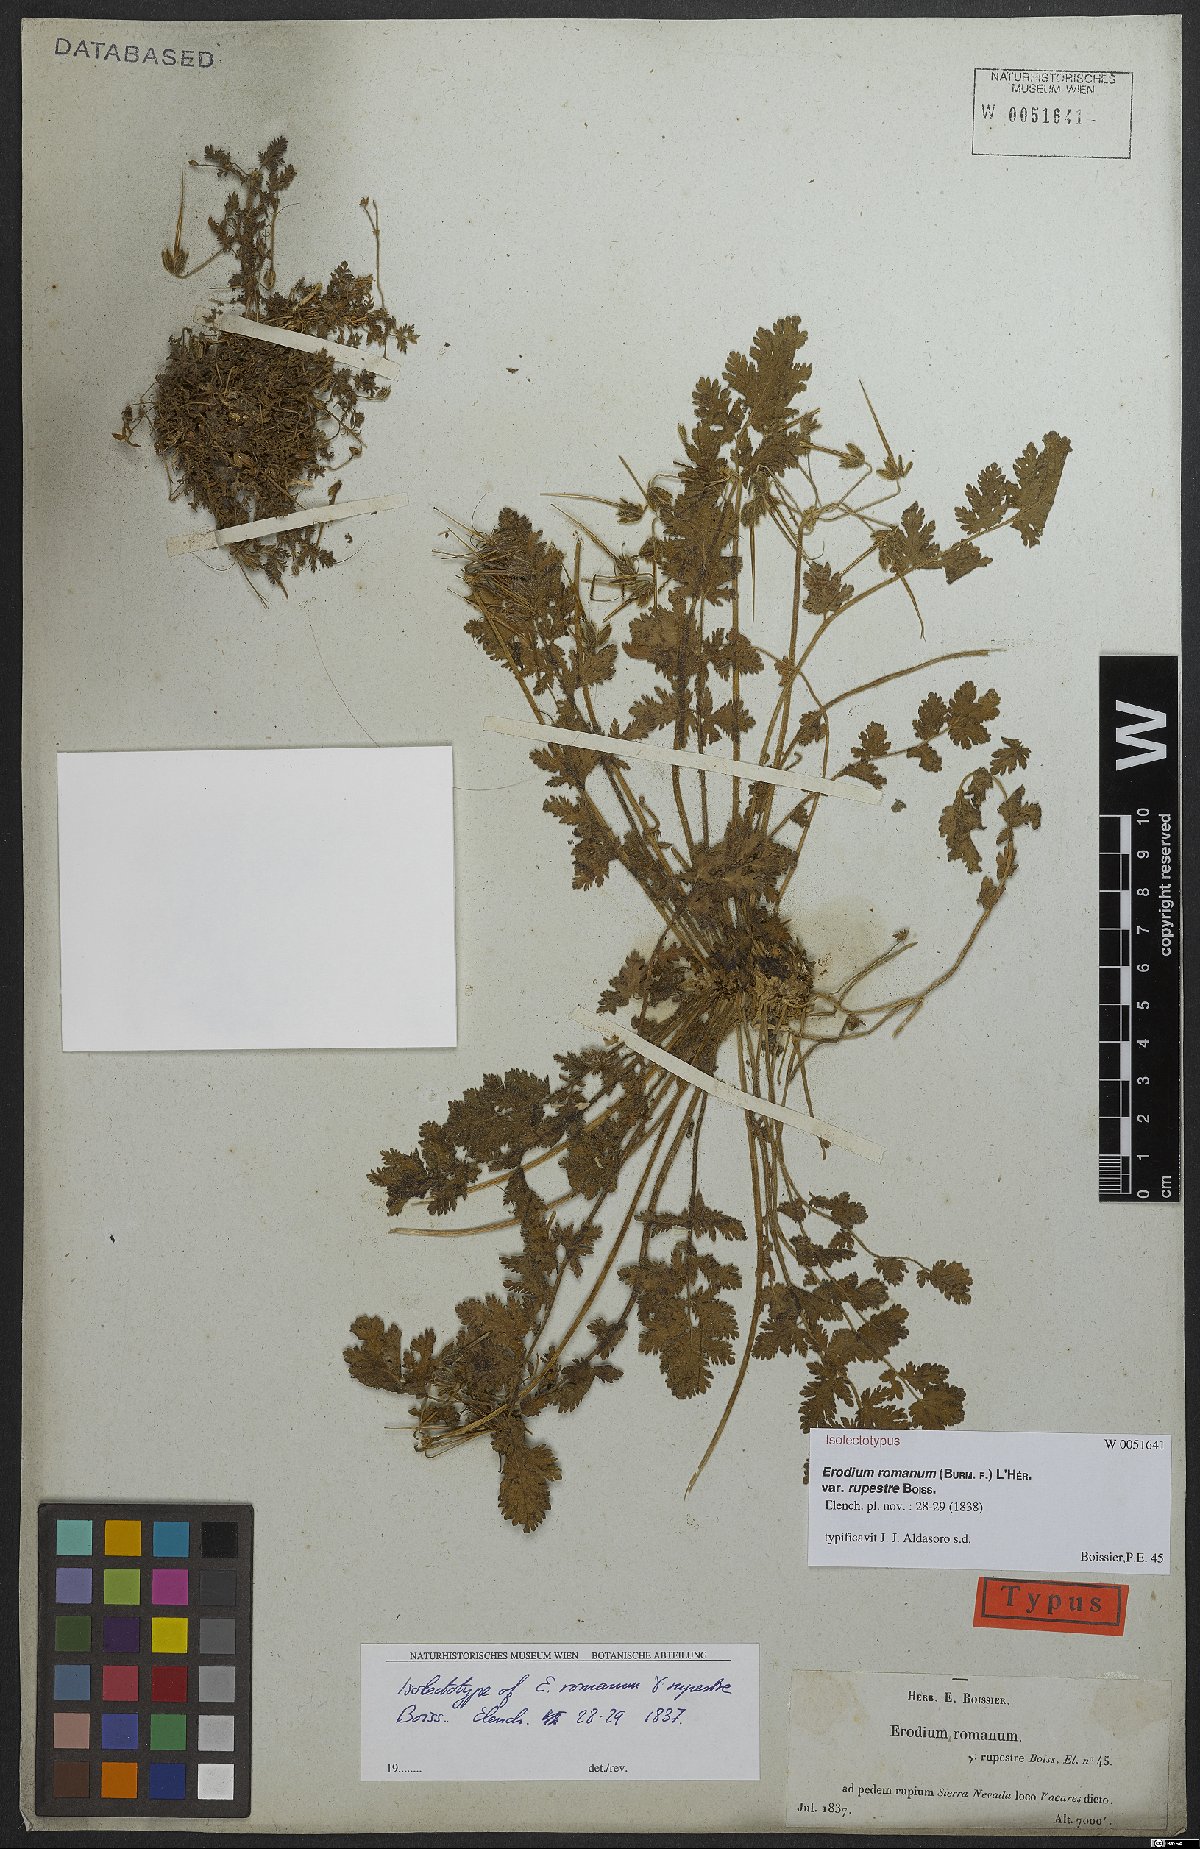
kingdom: Plantae
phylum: Tracheophyta
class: Magnoliopsida
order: Geraniales
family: Geraniaceae
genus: Erodium
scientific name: Erodium rupicola
